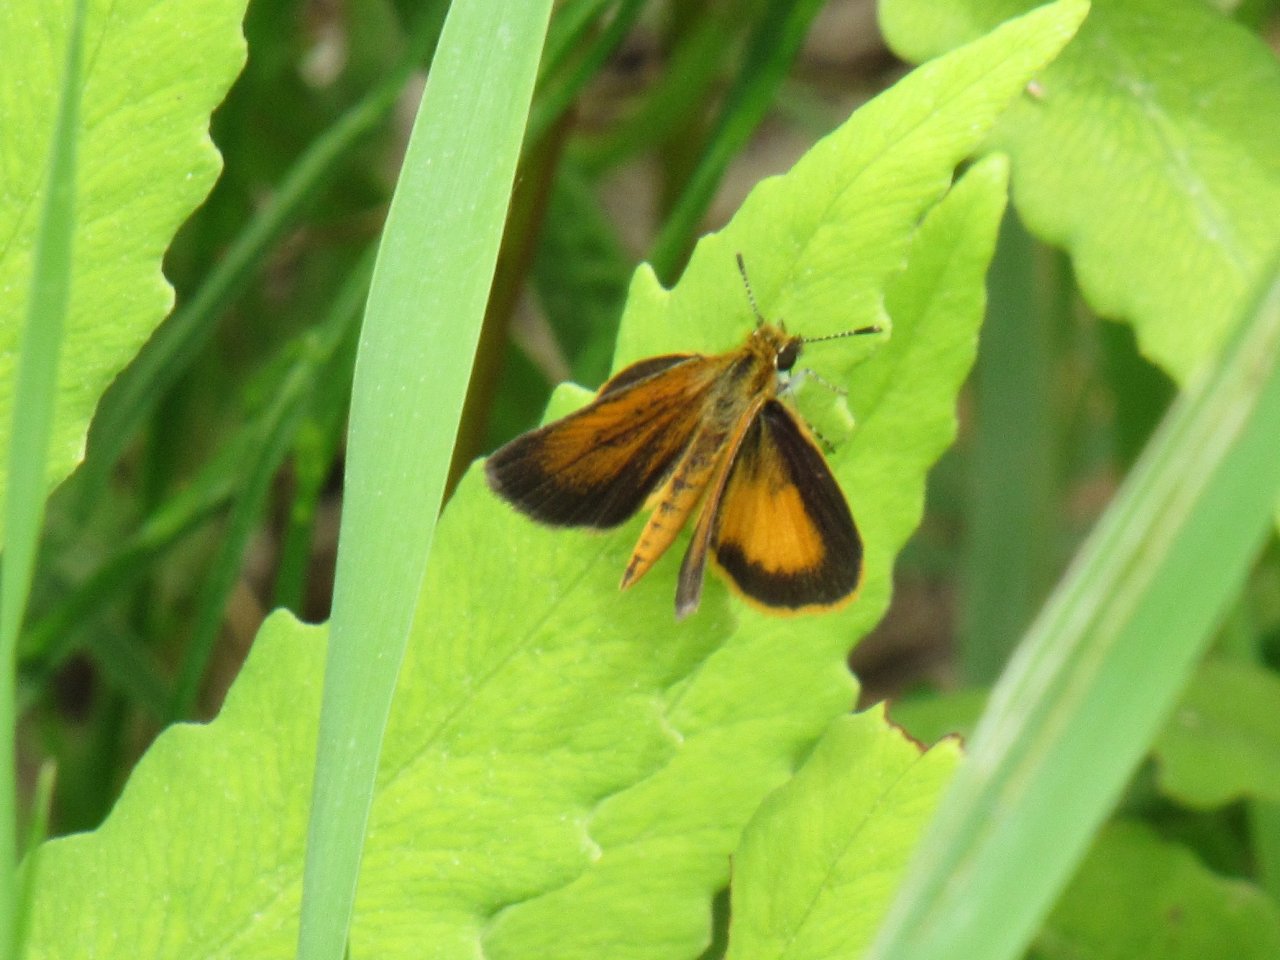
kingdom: Animalia
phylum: Arthropoda
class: Insecta
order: Lepidoptera
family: Hesperiidae
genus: Ancyloxypha
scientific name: Ancyloxypha numitor
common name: Least Skipper
